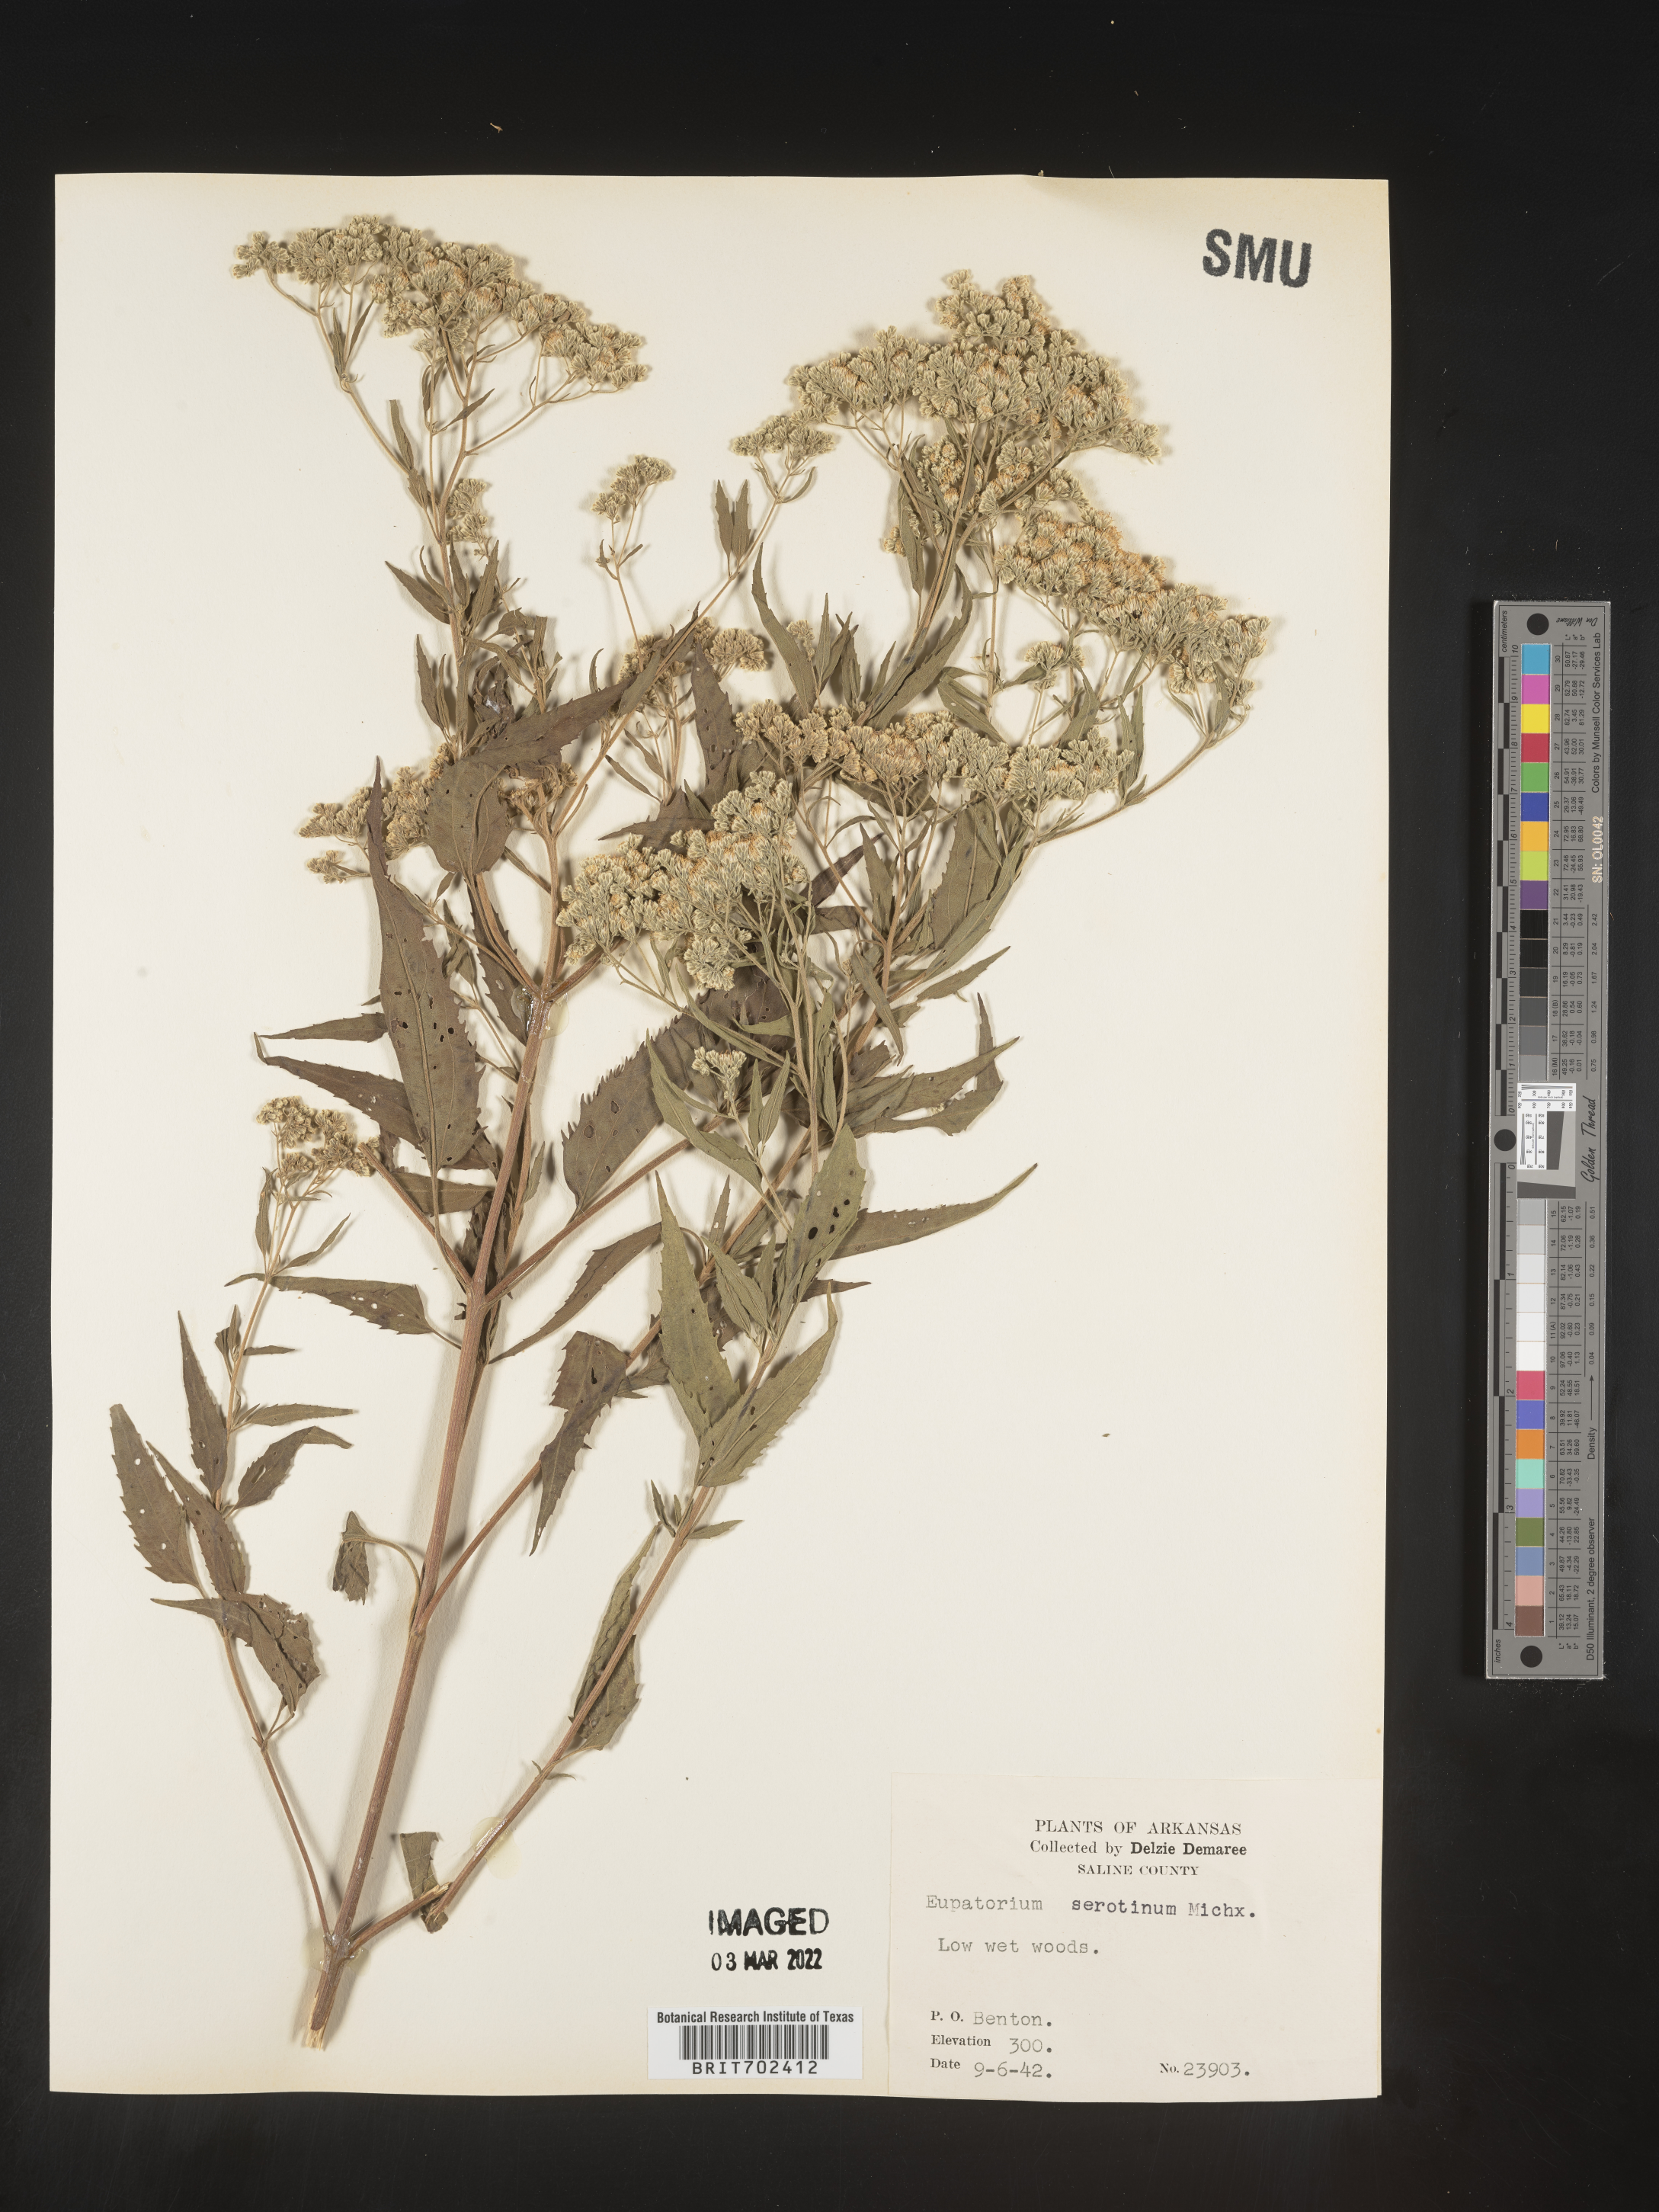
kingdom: Plantae
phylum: Tracheophyta
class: Magnoliopsida
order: Asterales
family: Asteraceae
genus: Eupatorium
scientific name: Eupatorium serotinum
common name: Late boneset
